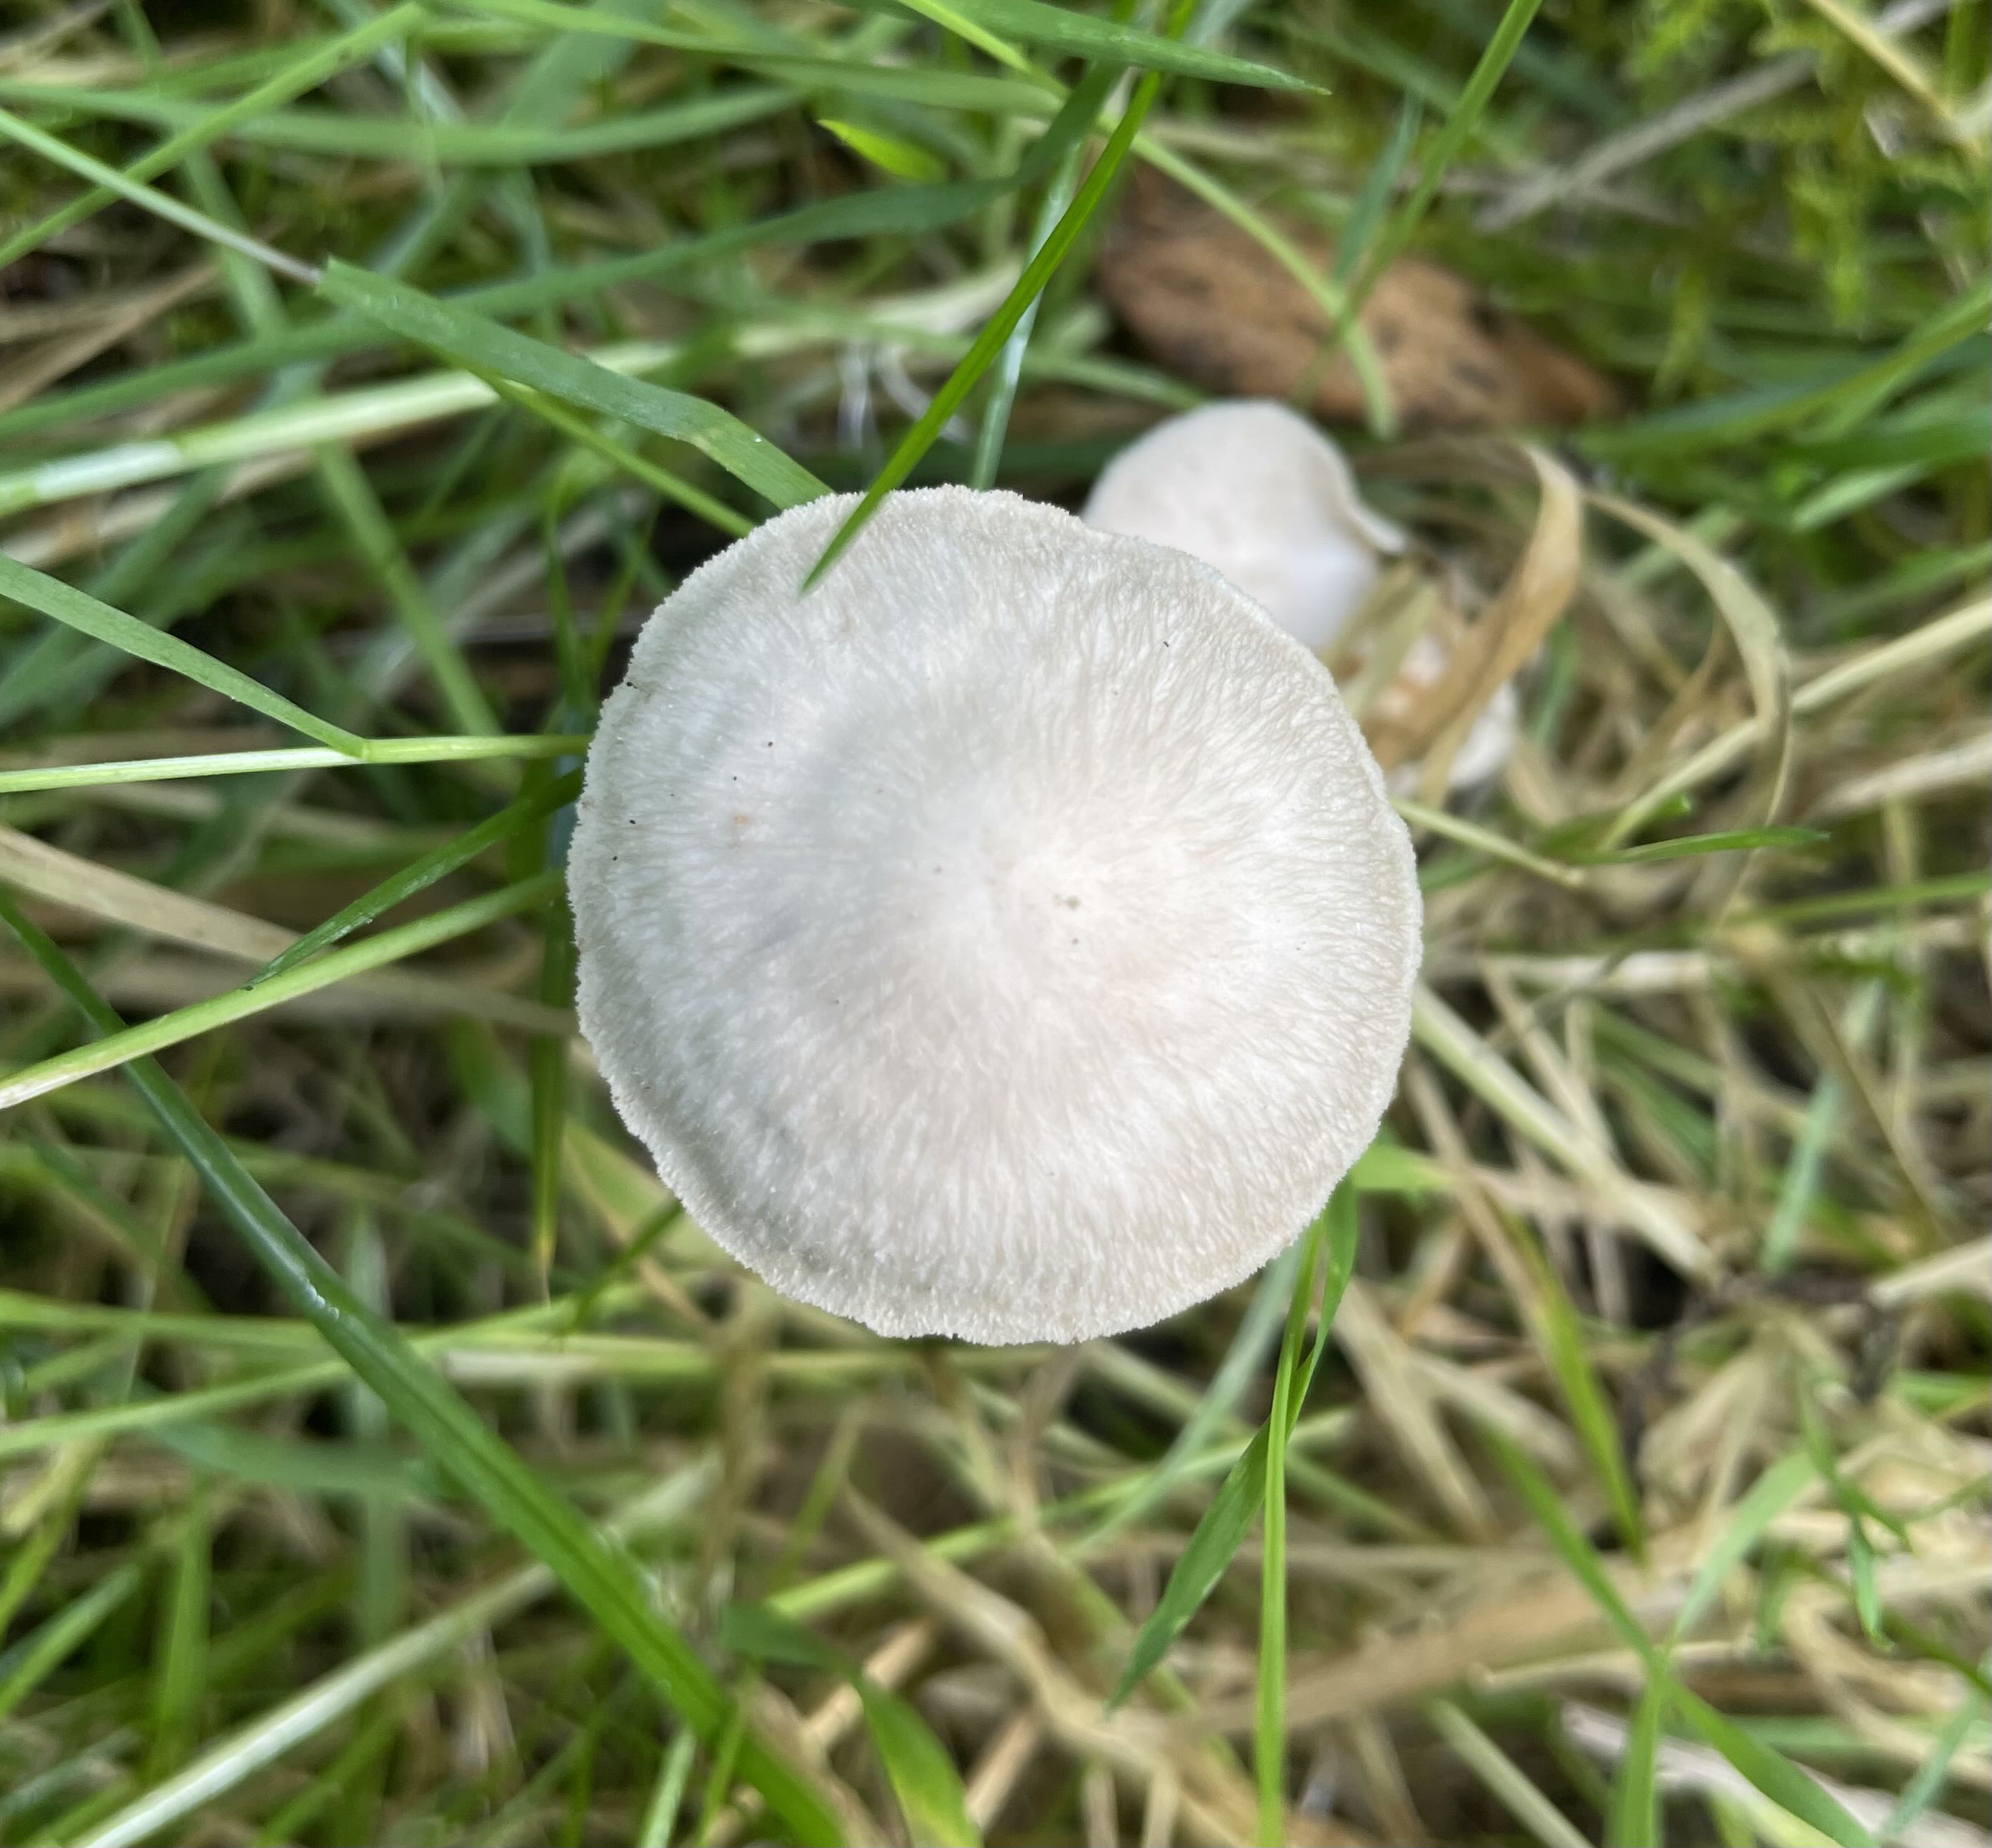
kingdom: Fungi
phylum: Basidiomycota
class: Agaricomycetes
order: Agaricales
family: Omphalotaceae
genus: Collybiopsis
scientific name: Collybiopsis confluens
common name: knippe-fladhat
